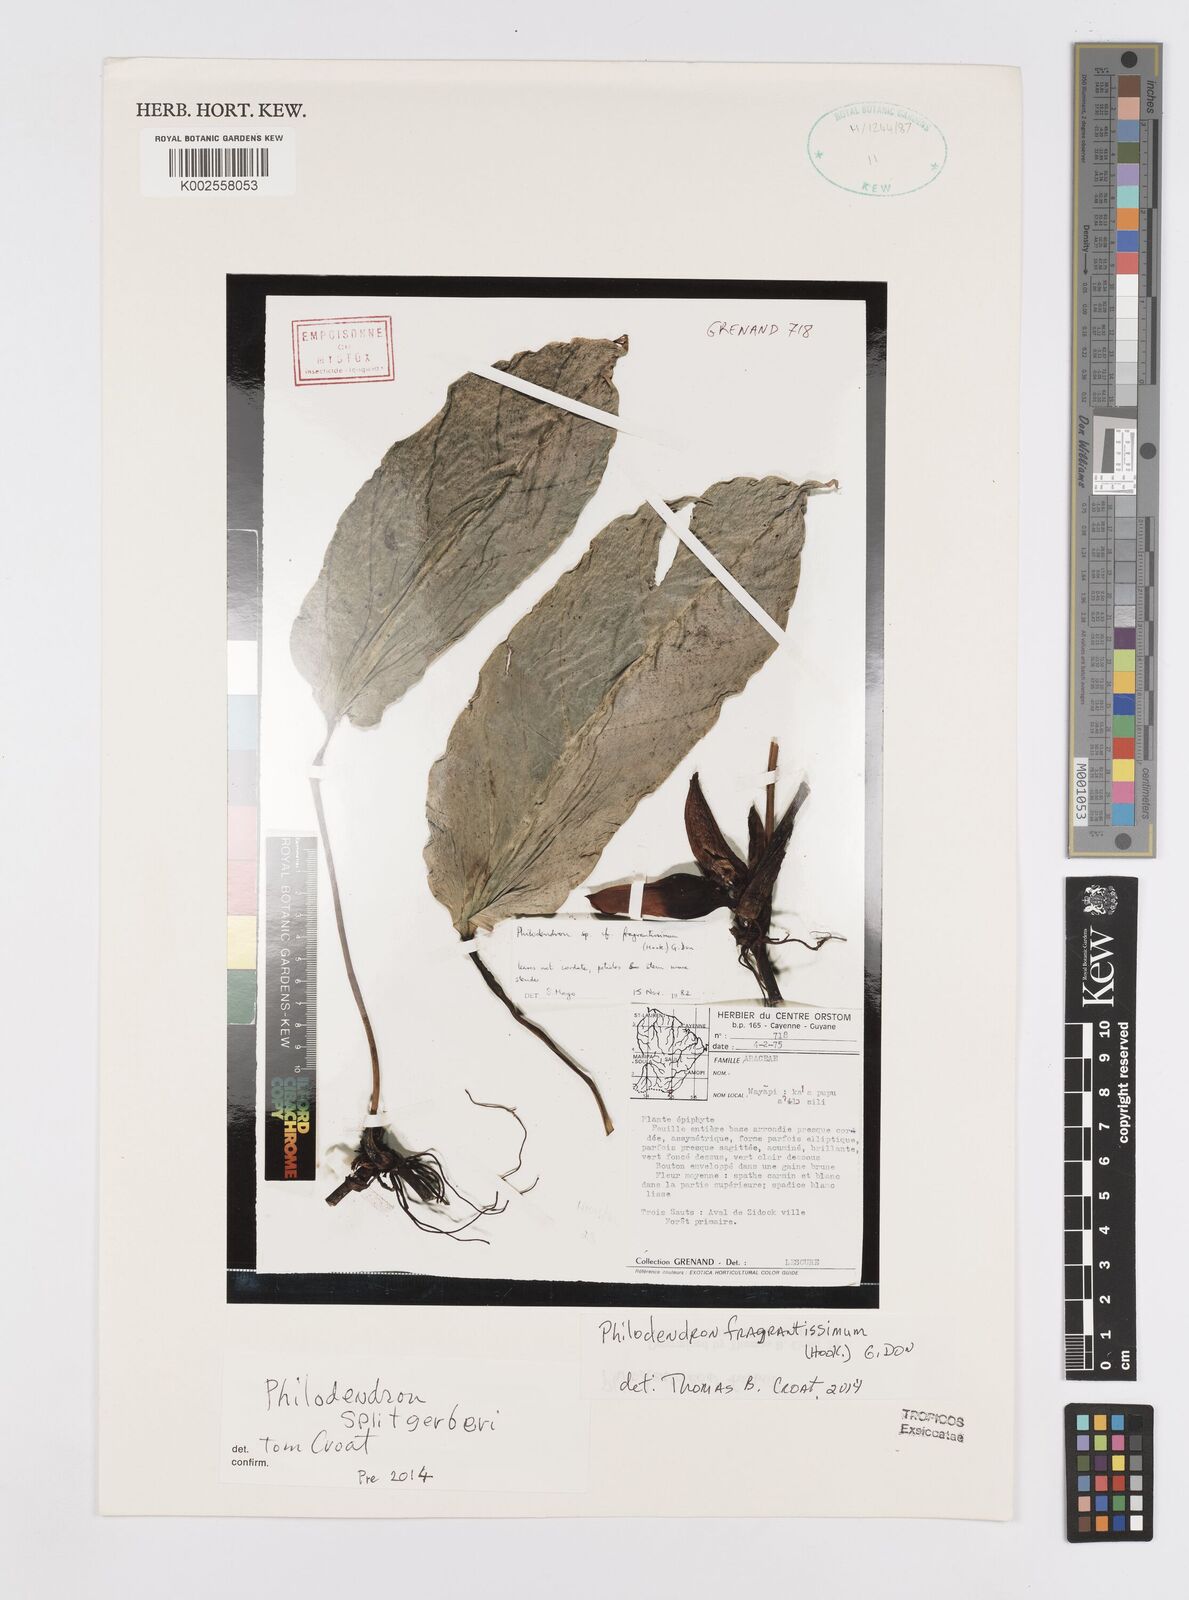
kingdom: Plantae
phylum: Tracheophyta
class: Liliopsida
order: Alismatales
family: Araceae
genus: Philodendron
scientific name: Philodendron fragrantissimum
